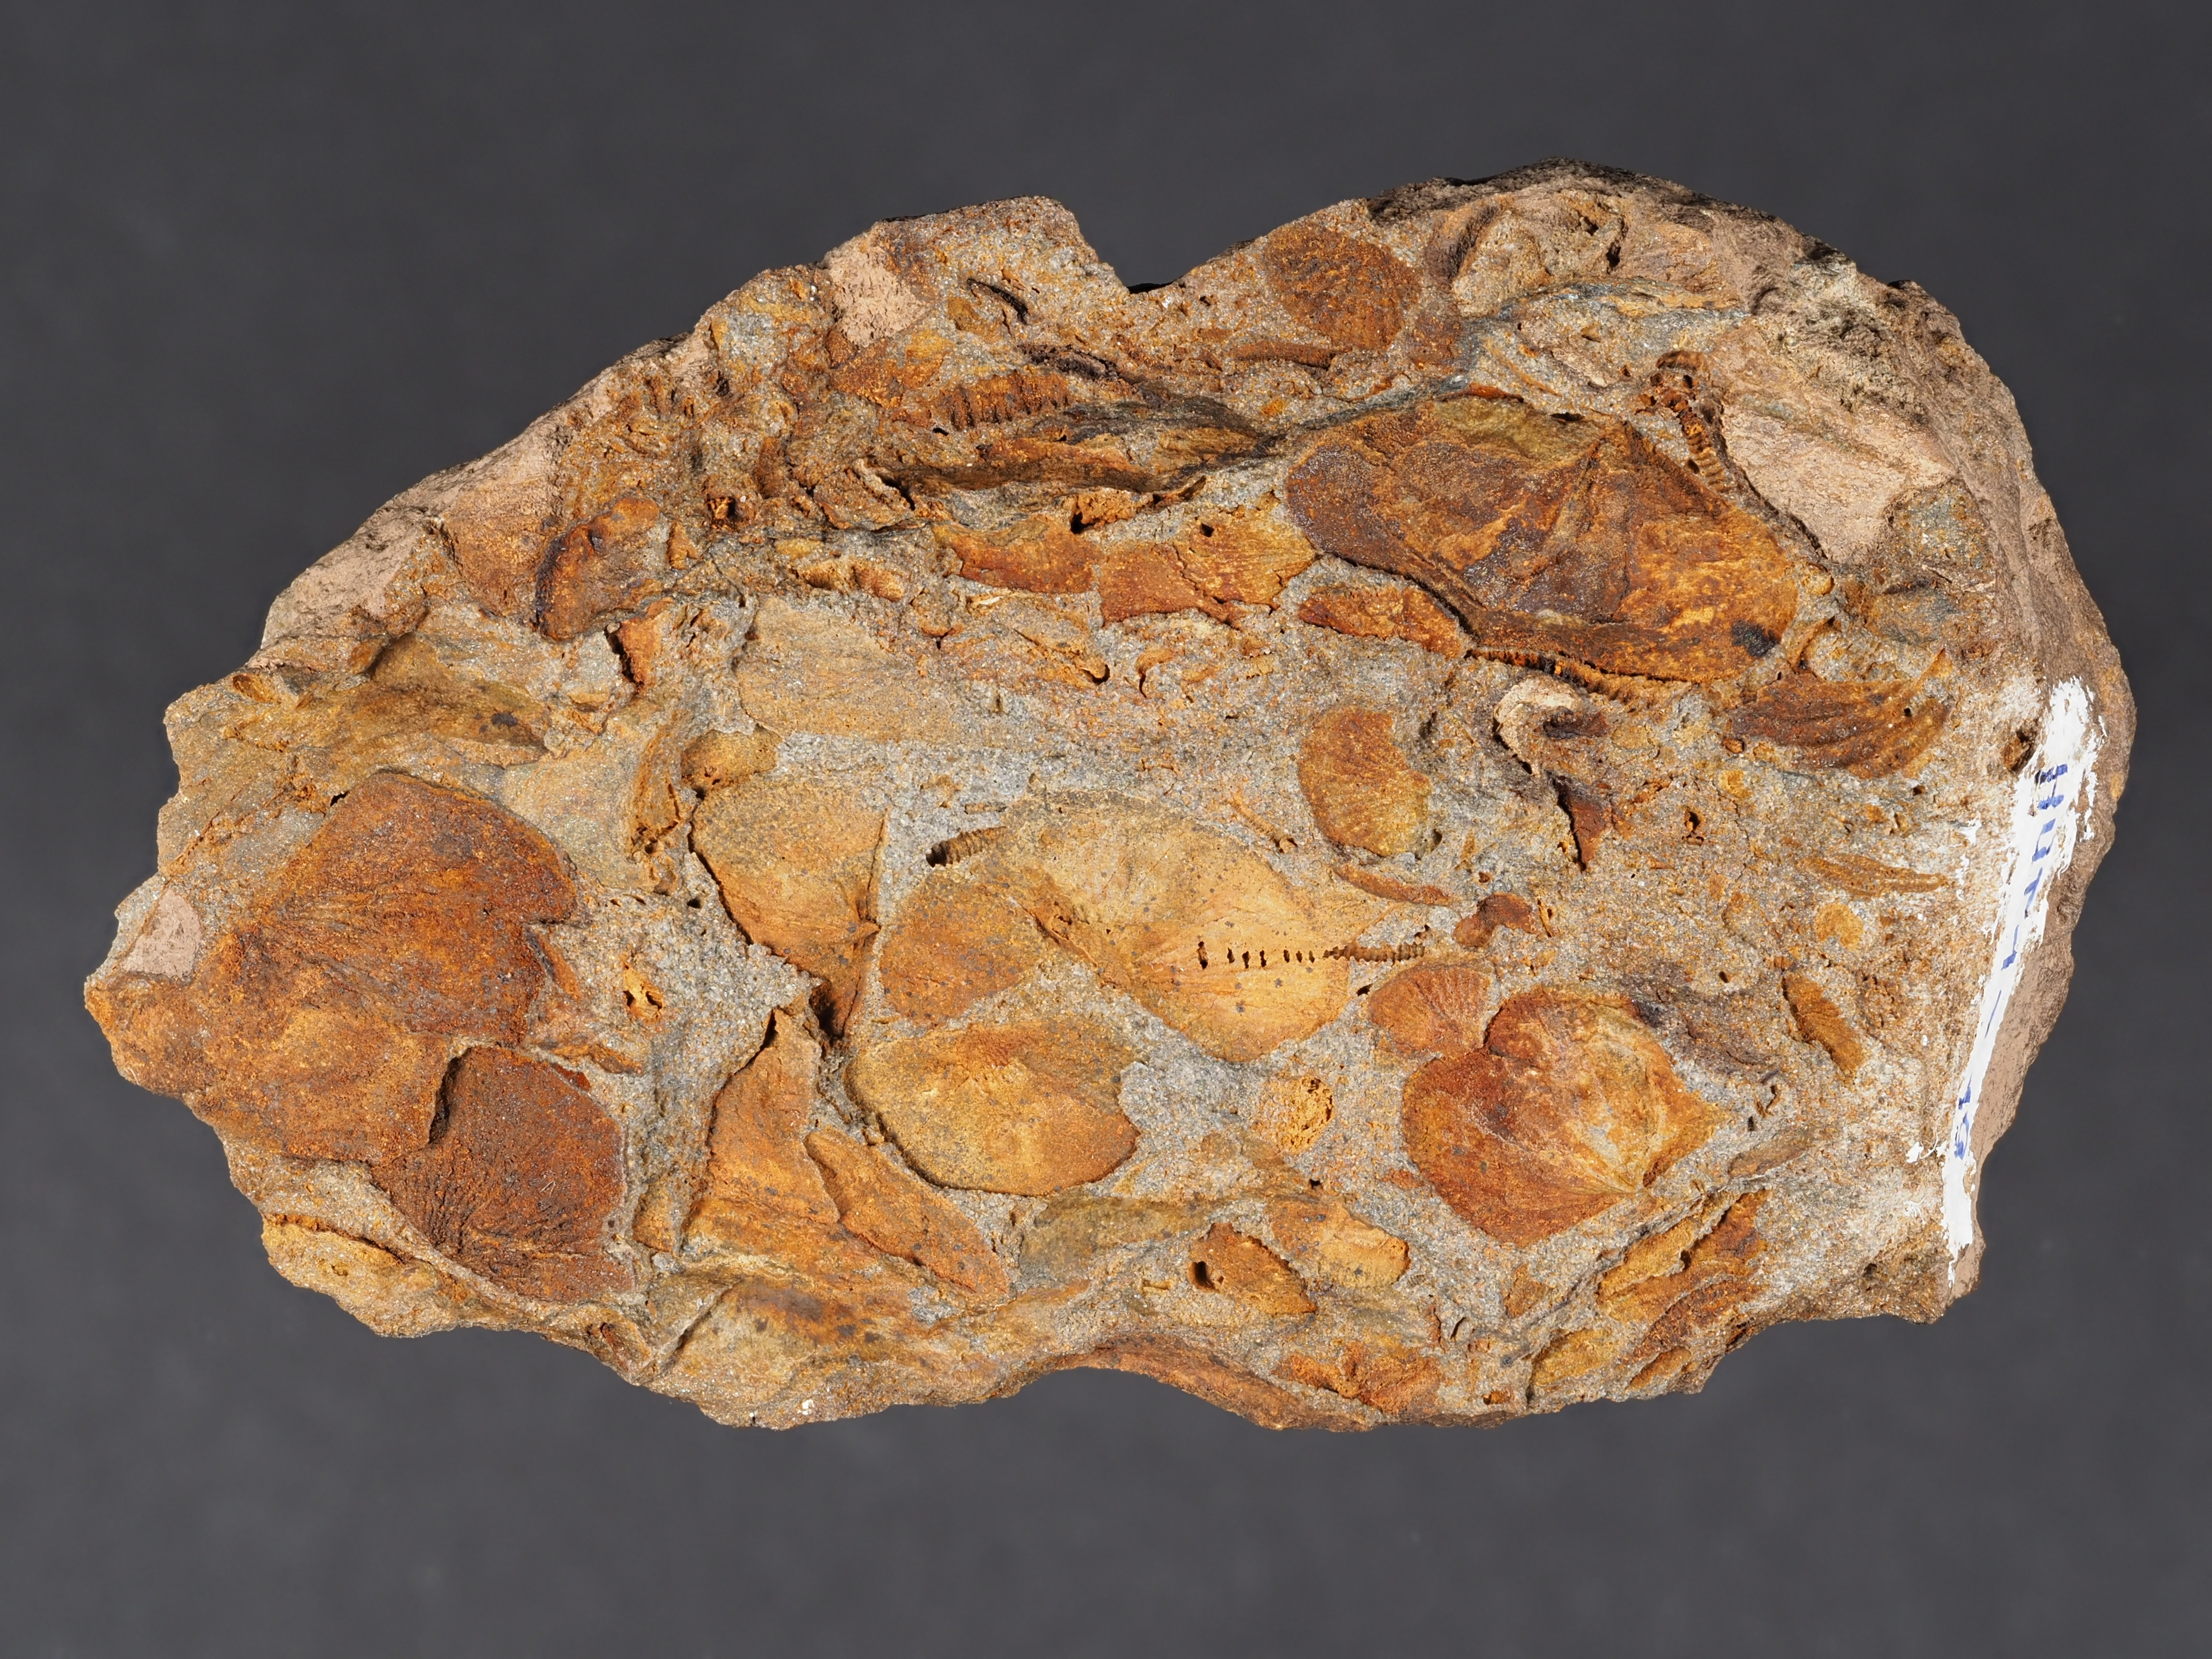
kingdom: Animalia
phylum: Brachiopoda
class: Rhynchonellata
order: Terebratulida
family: Mutationellidae
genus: Mutationella
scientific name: Mutationella
